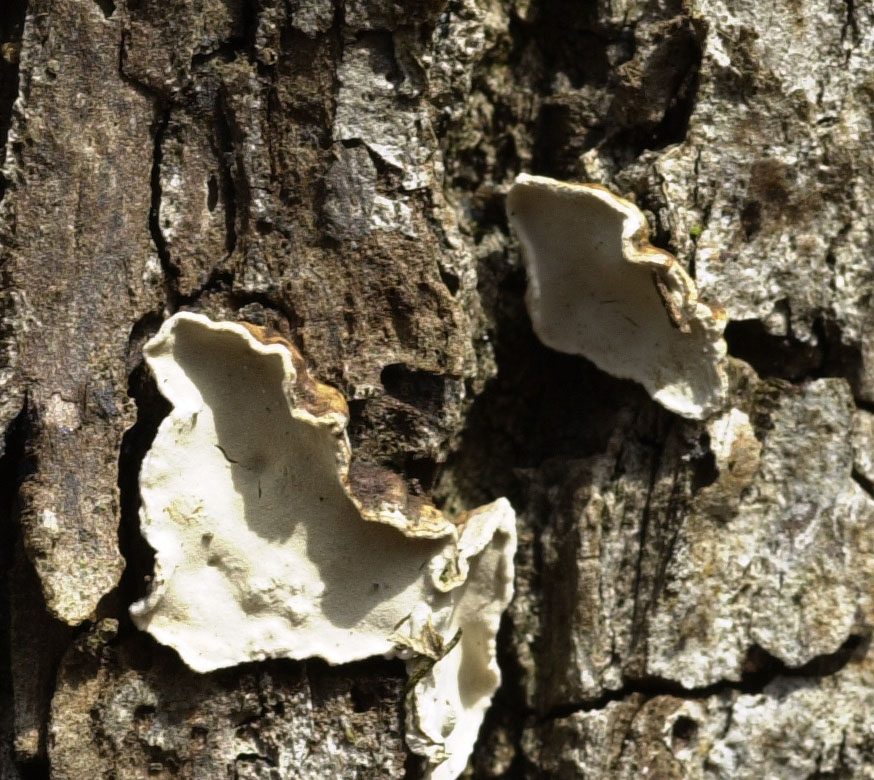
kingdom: Fungi
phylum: Basidiomycota
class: Agaricomycetes
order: Russulales
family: Stereaceae
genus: Aleurodiscus
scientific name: Aleurodiscus disciformis
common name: hvidlig skiveskorpe
